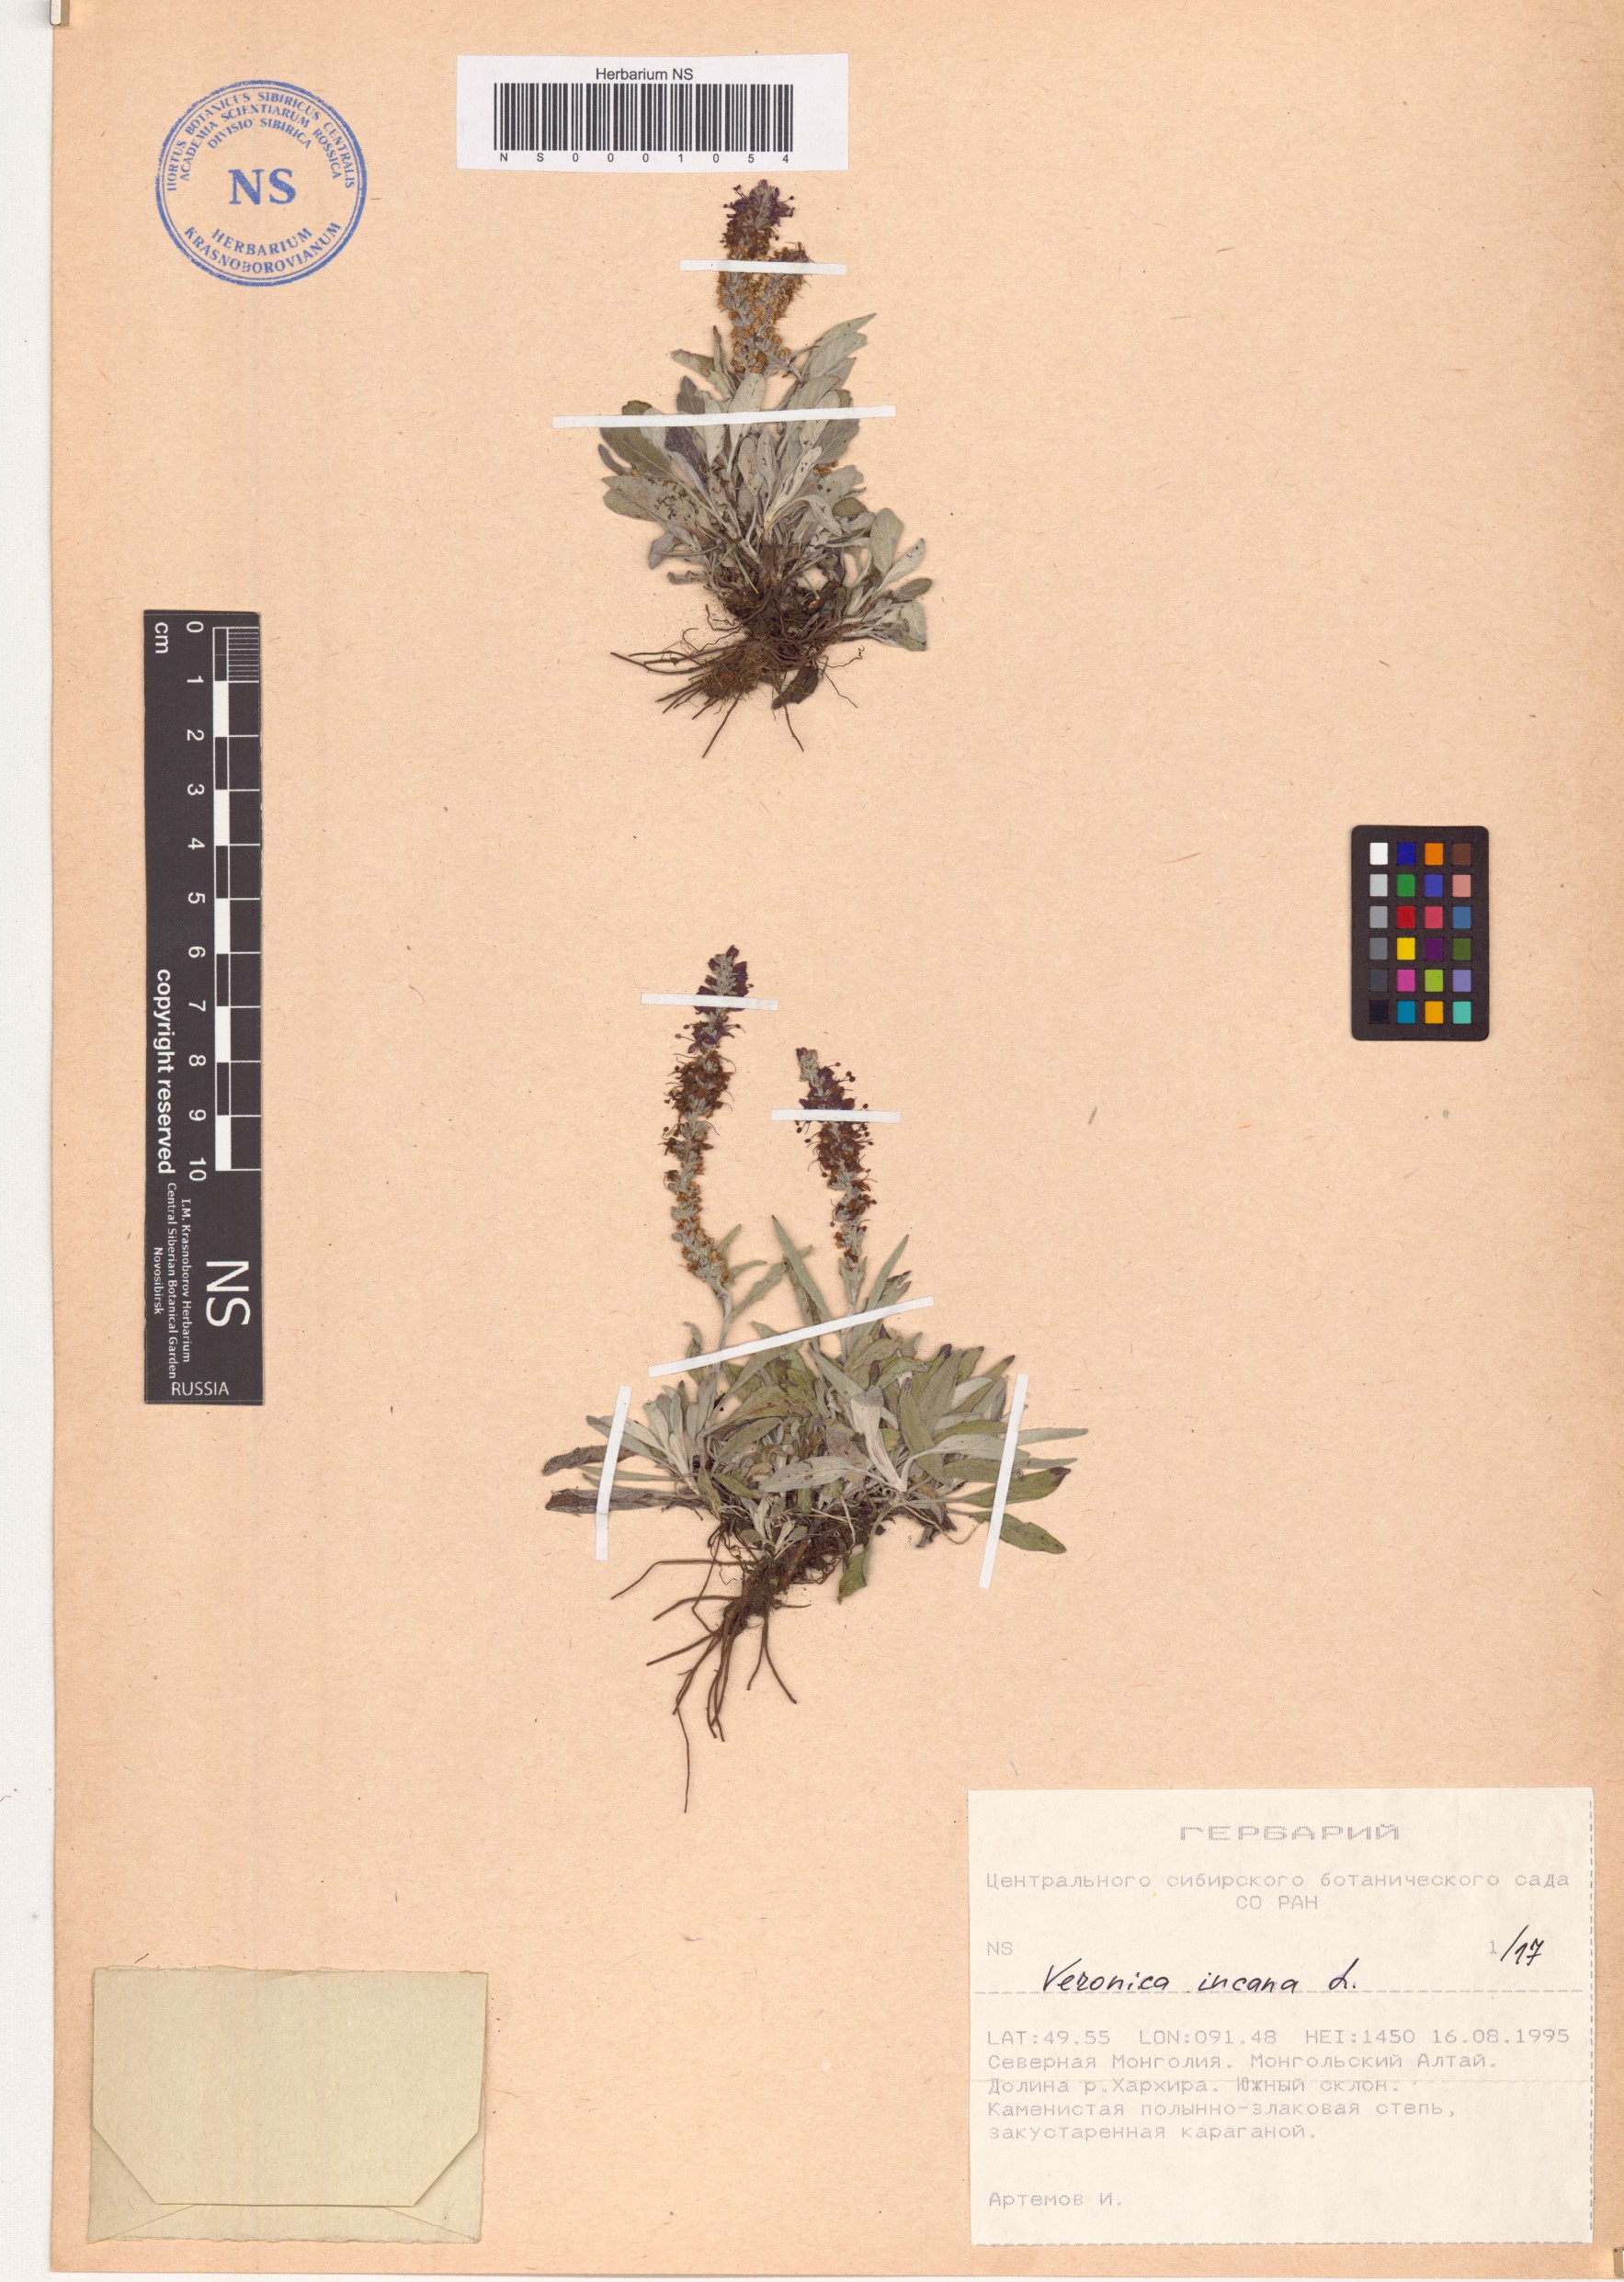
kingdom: Plantae
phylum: Tracheophyta
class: Magnoliopsida
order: Lamiales
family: Plantaginaceae
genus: Veronica
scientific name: Veronica incana
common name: Silver speedwell
